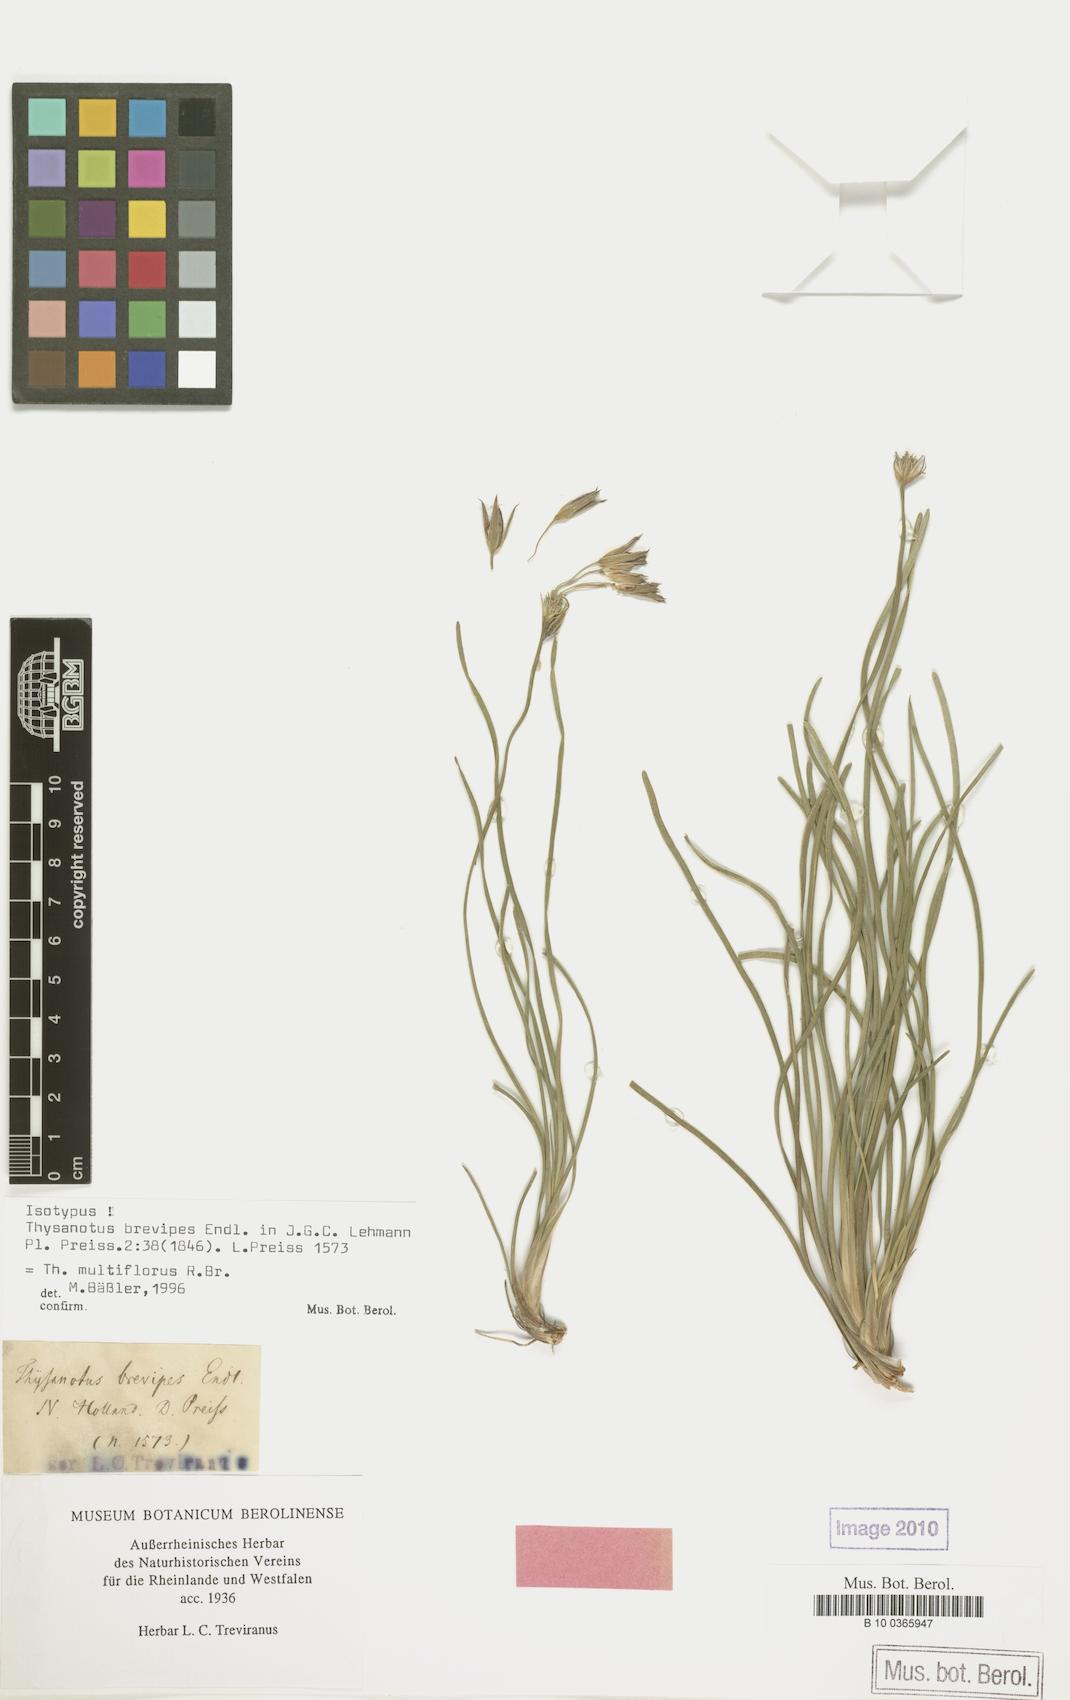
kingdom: Plantae
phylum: Tracheophyta
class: Liliopsida
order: Asparagales
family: Asparagaceae
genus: Thysanotus
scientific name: Thysanotus multiflorus
